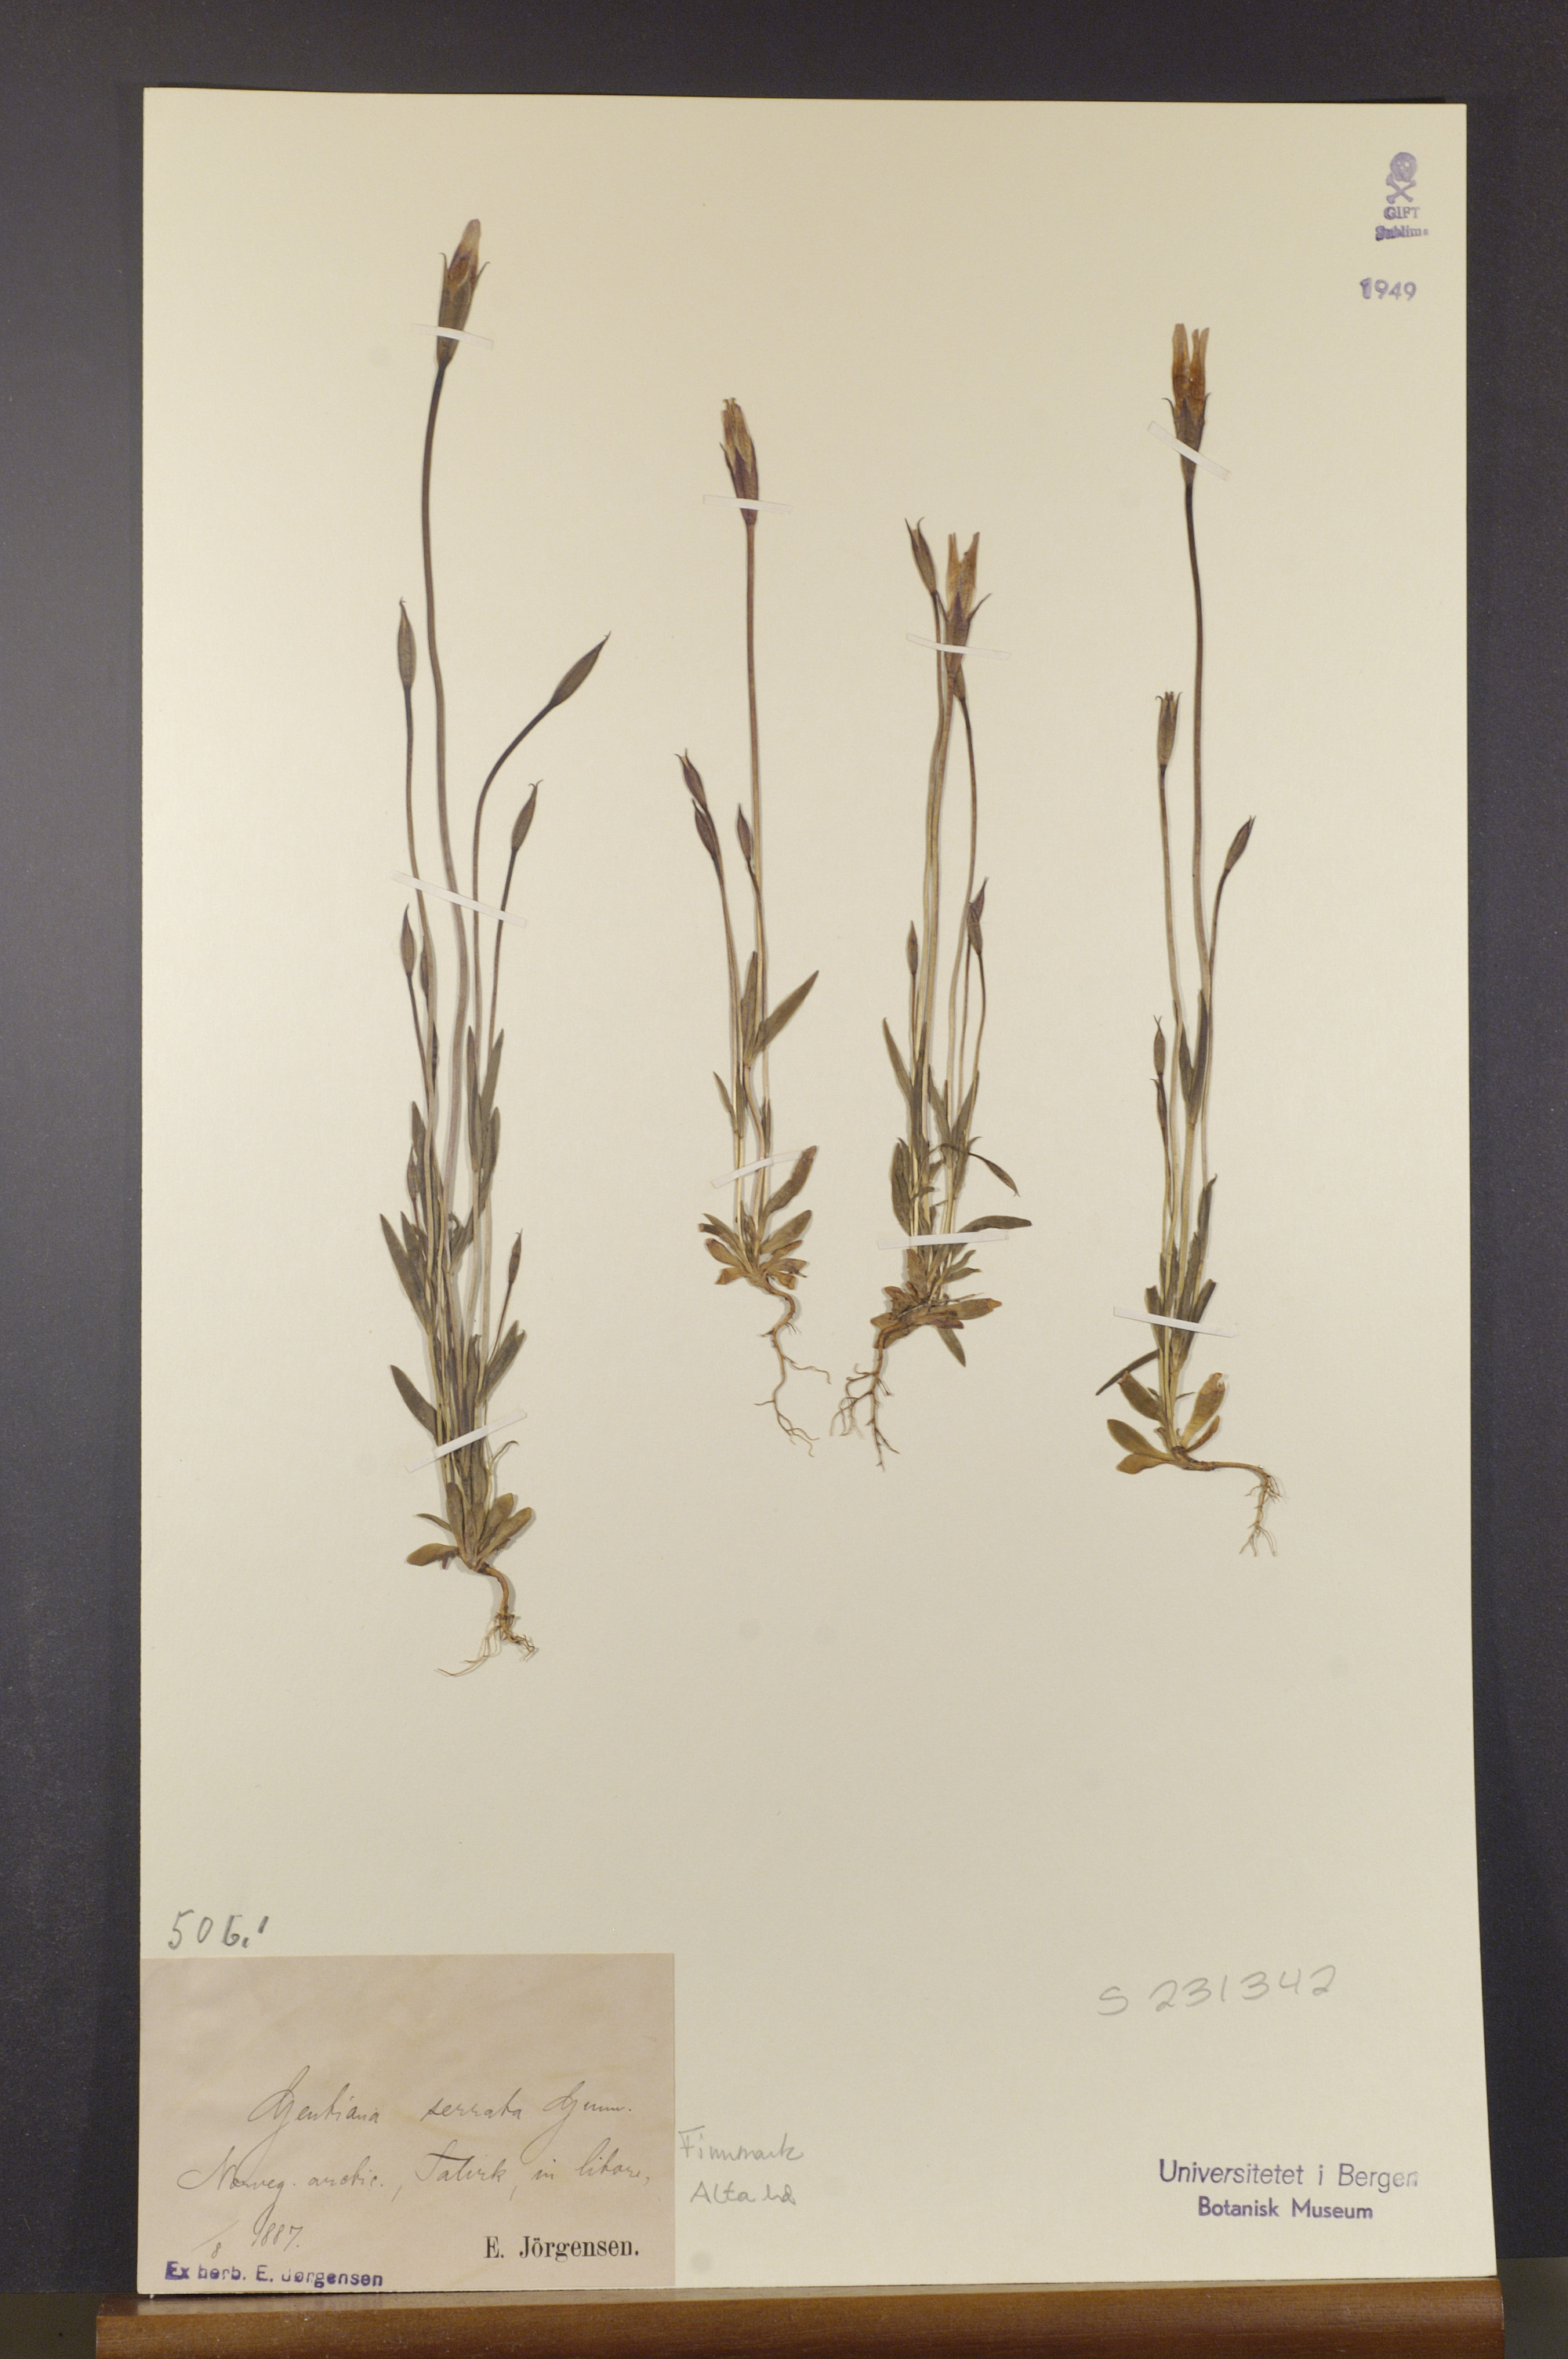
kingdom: Plantae
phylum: Tracheophyta
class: Magnoliopsida
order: Gentianales
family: Gentianaceae
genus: Gentianopsis
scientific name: Gentianopsis detonsa
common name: Fringed-gentian
